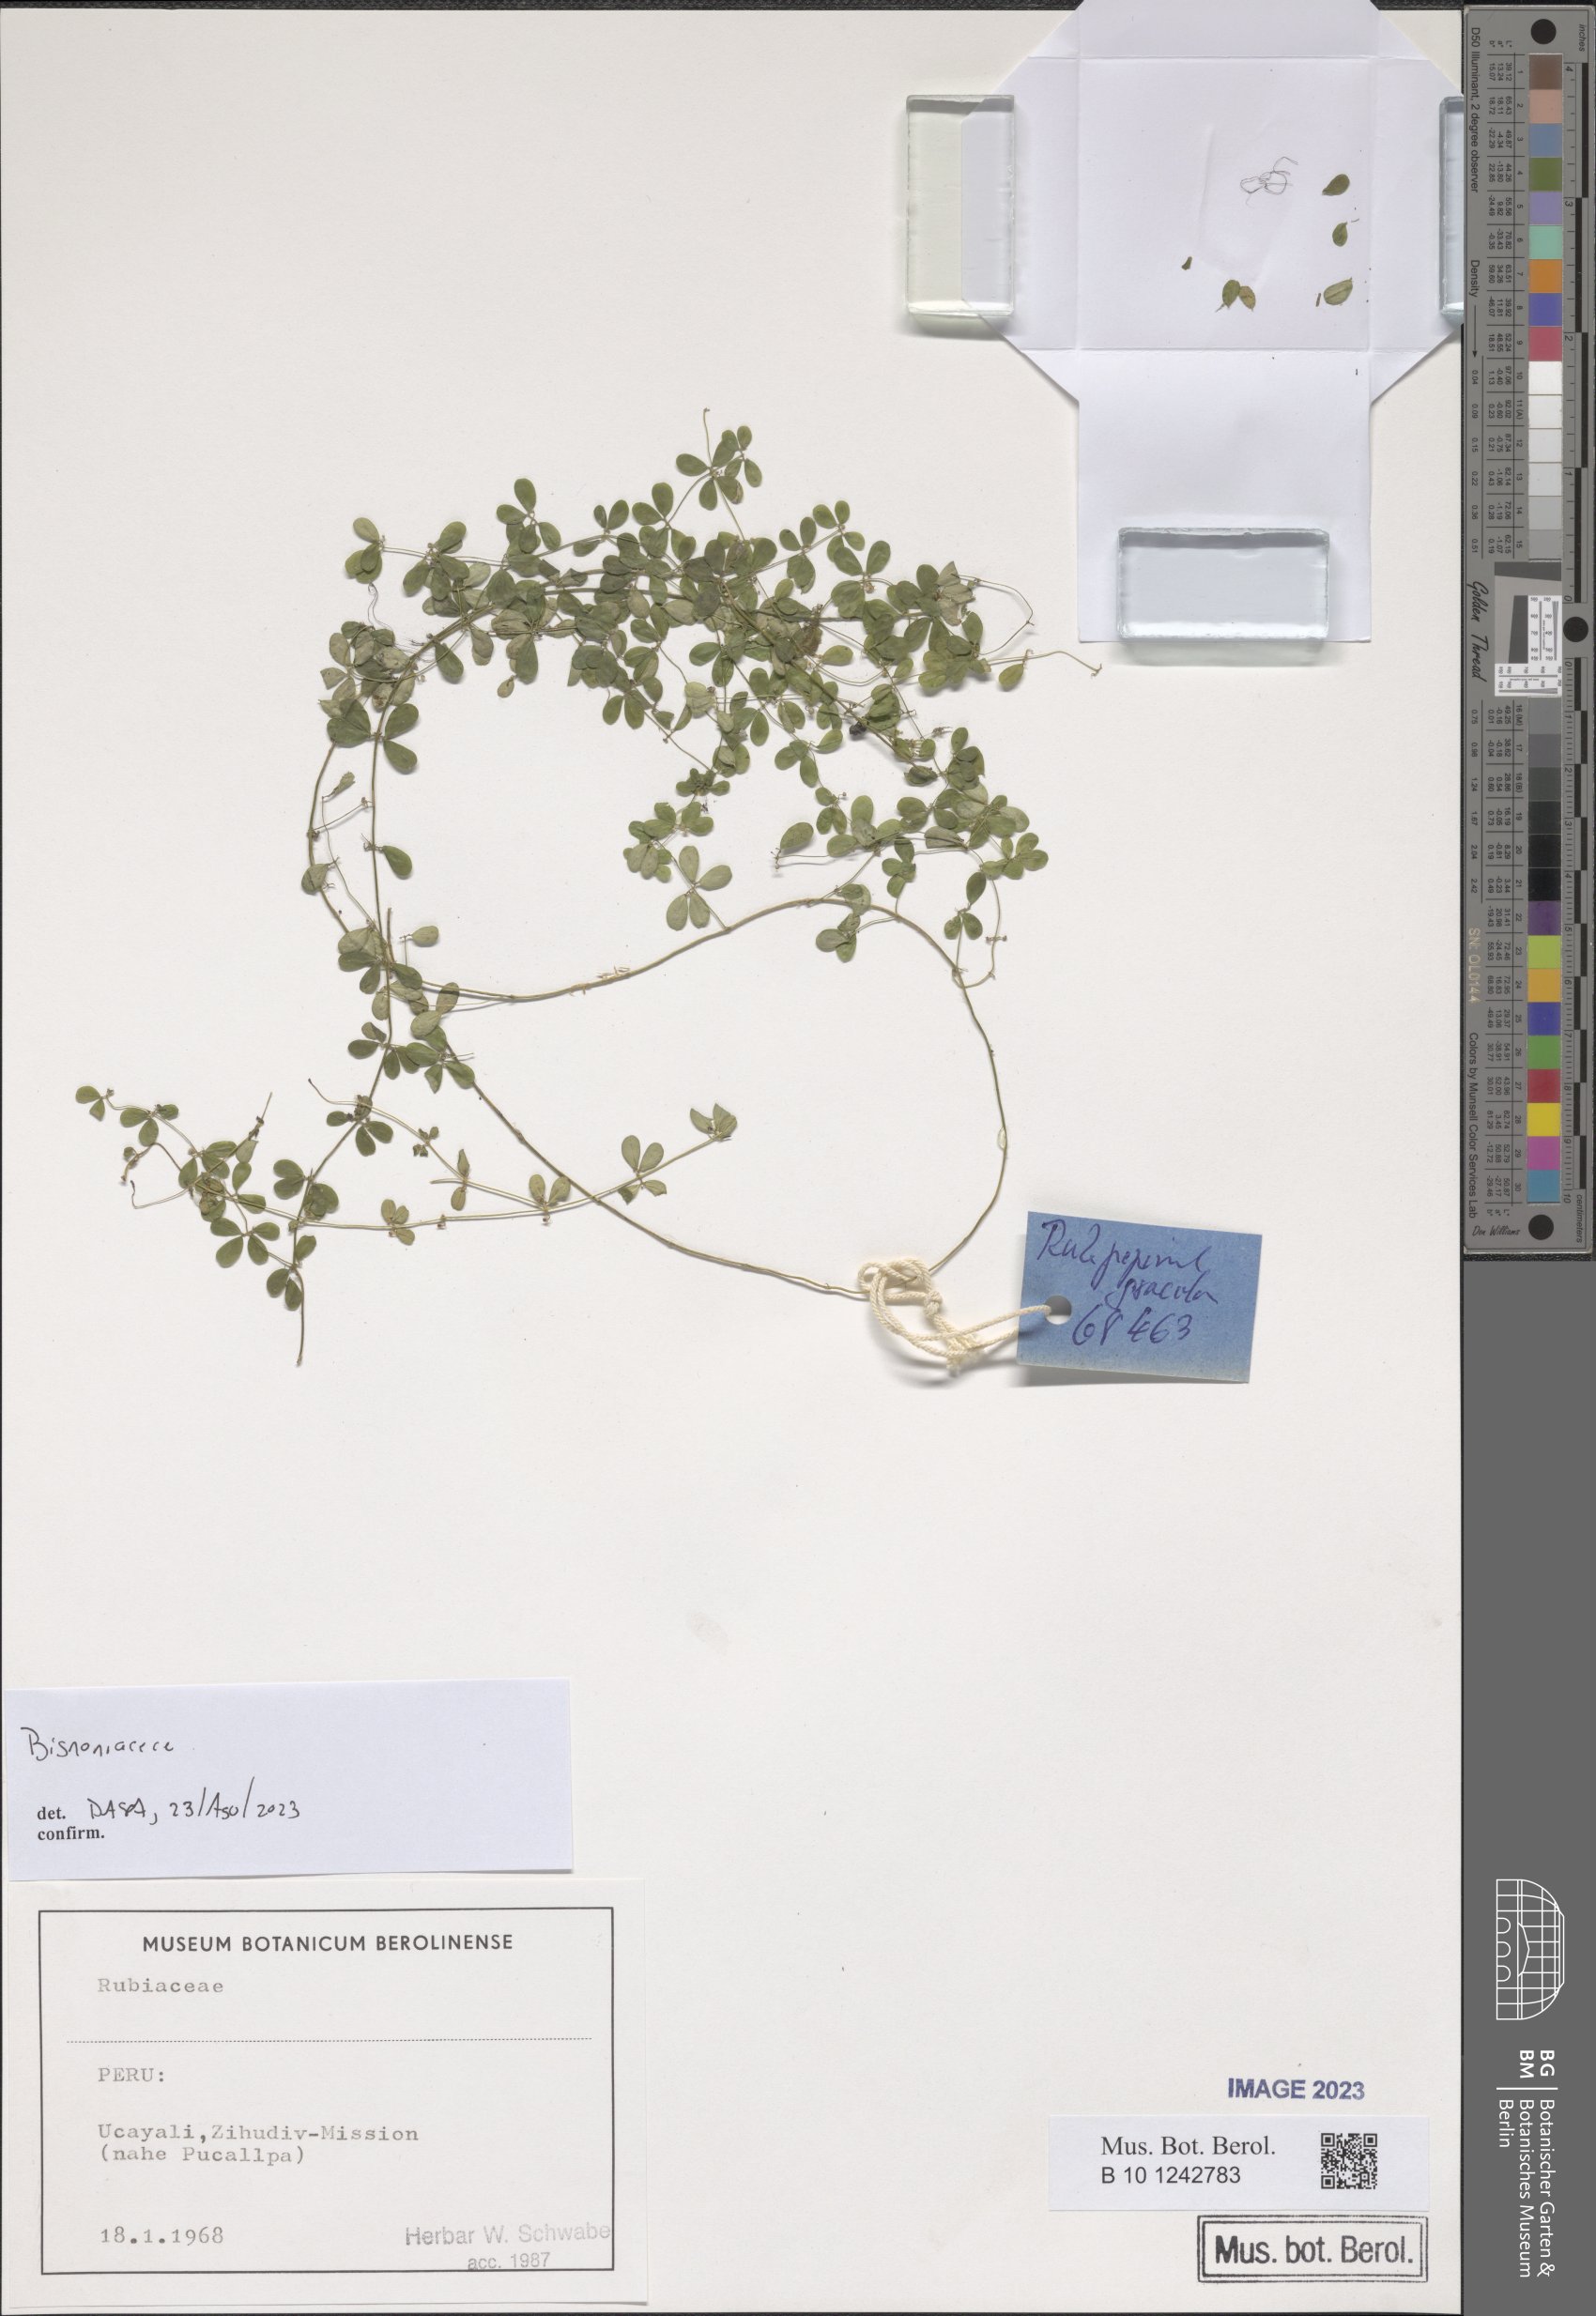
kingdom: Plantae
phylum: Tracheophyta
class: Magnoliopsida
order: Lamiales
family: Bignoniaceae
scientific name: Bignoniaceae
